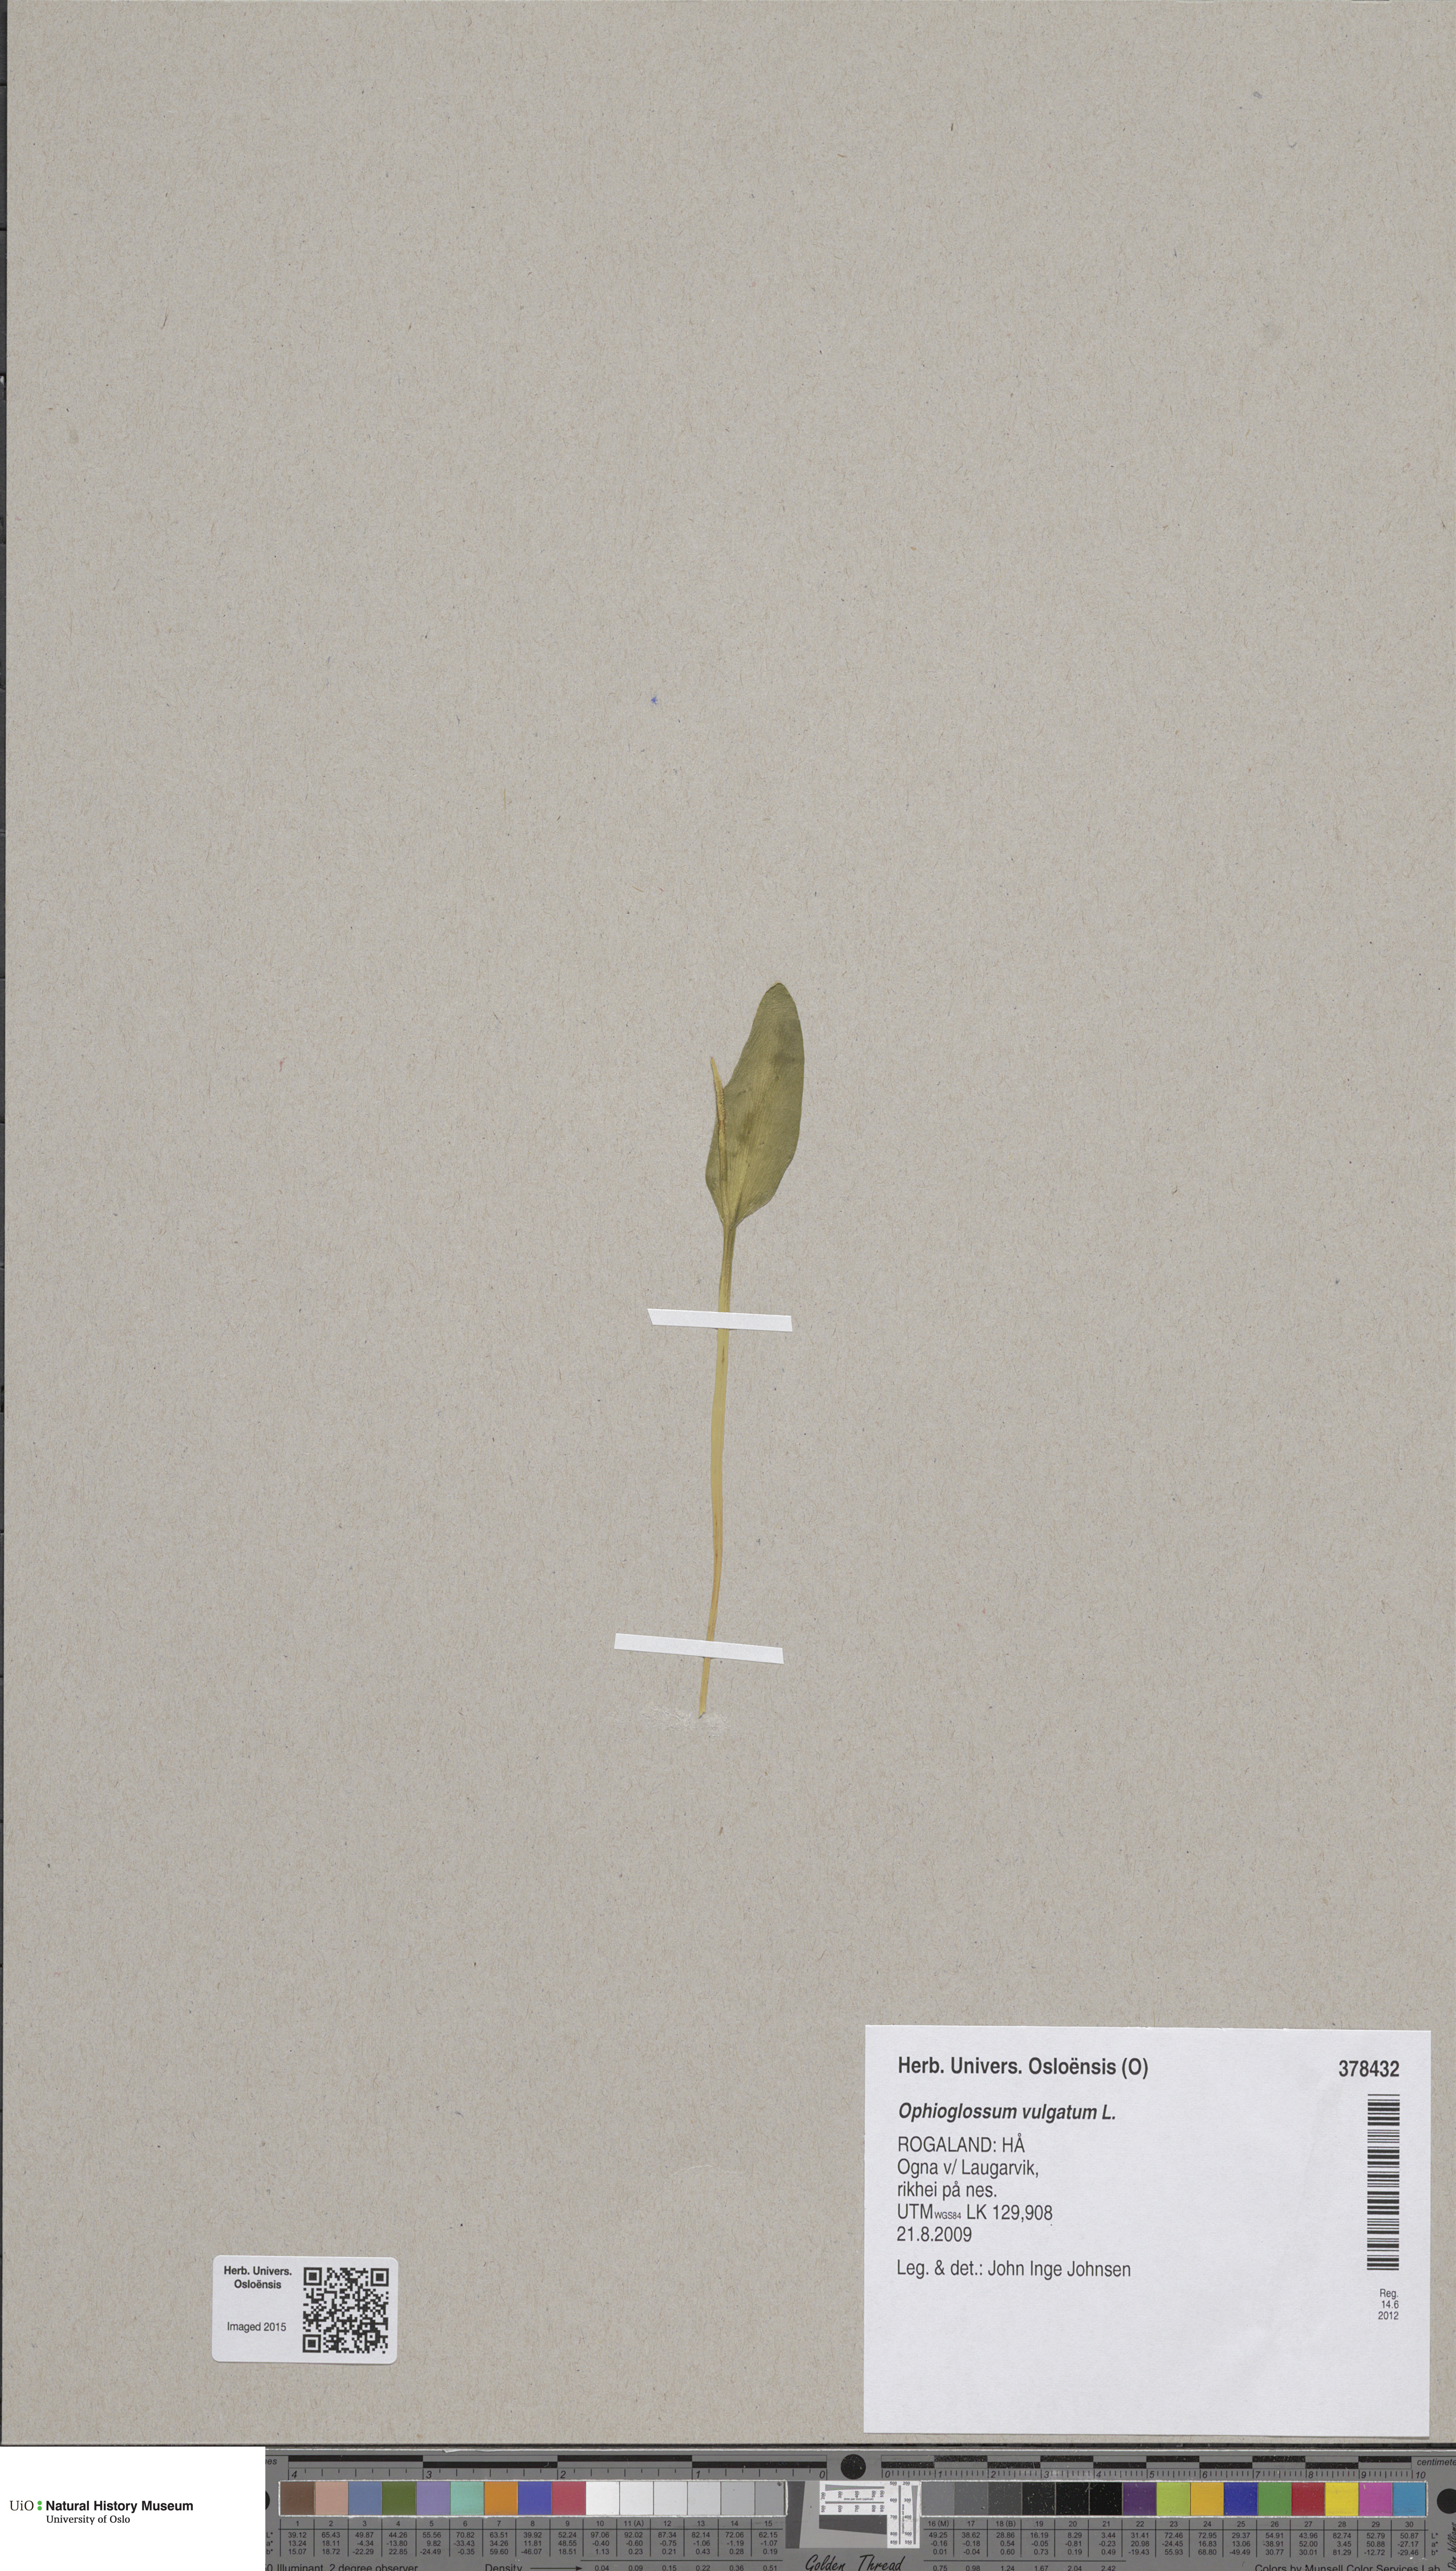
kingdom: Plantae
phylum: Tracheophyta
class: Polypodiopsida
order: Ophioglossales
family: Ophioglossaceae
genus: Ophioglossum
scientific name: Ophioglossum vulgatum
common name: Adder's-tongue
